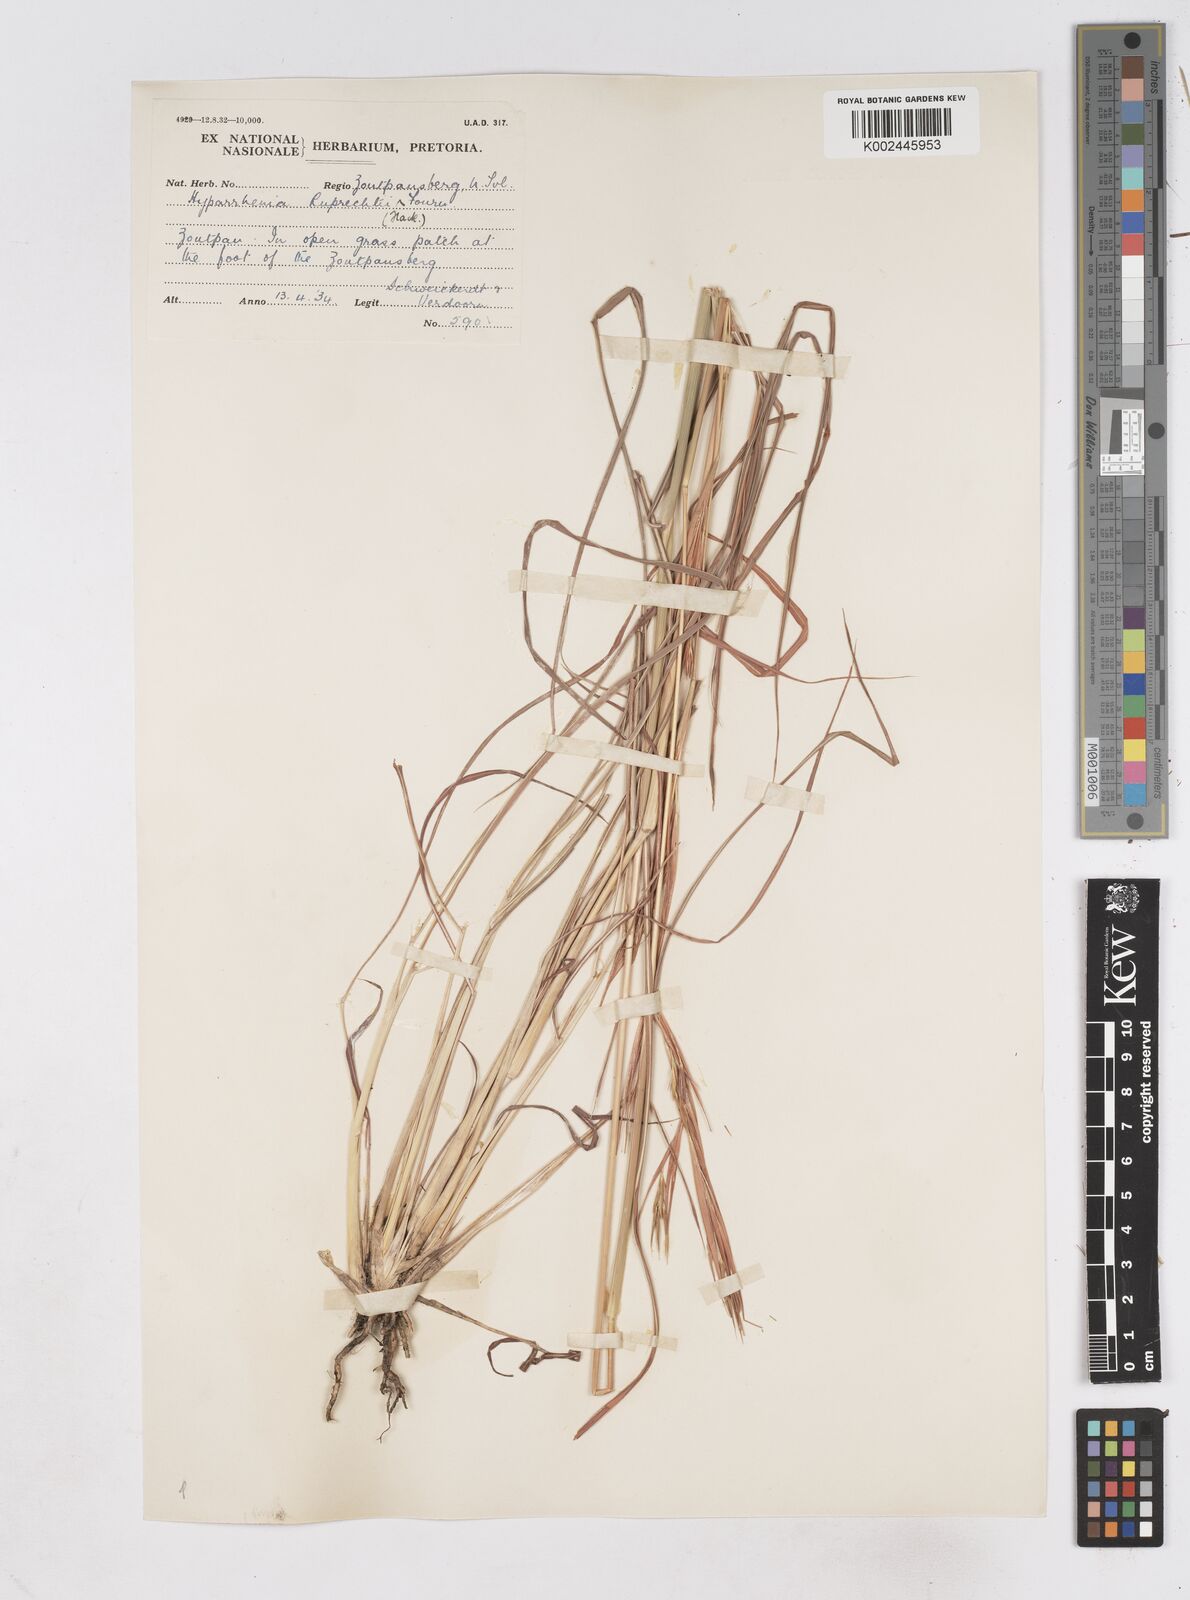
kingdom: Plantae
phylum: Tracheophyta
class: Liliopsida
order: Poales
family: Poaceae
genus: Hyperthelia
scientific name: Hyperthelia dissoluta
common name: Yellow thatching grass
